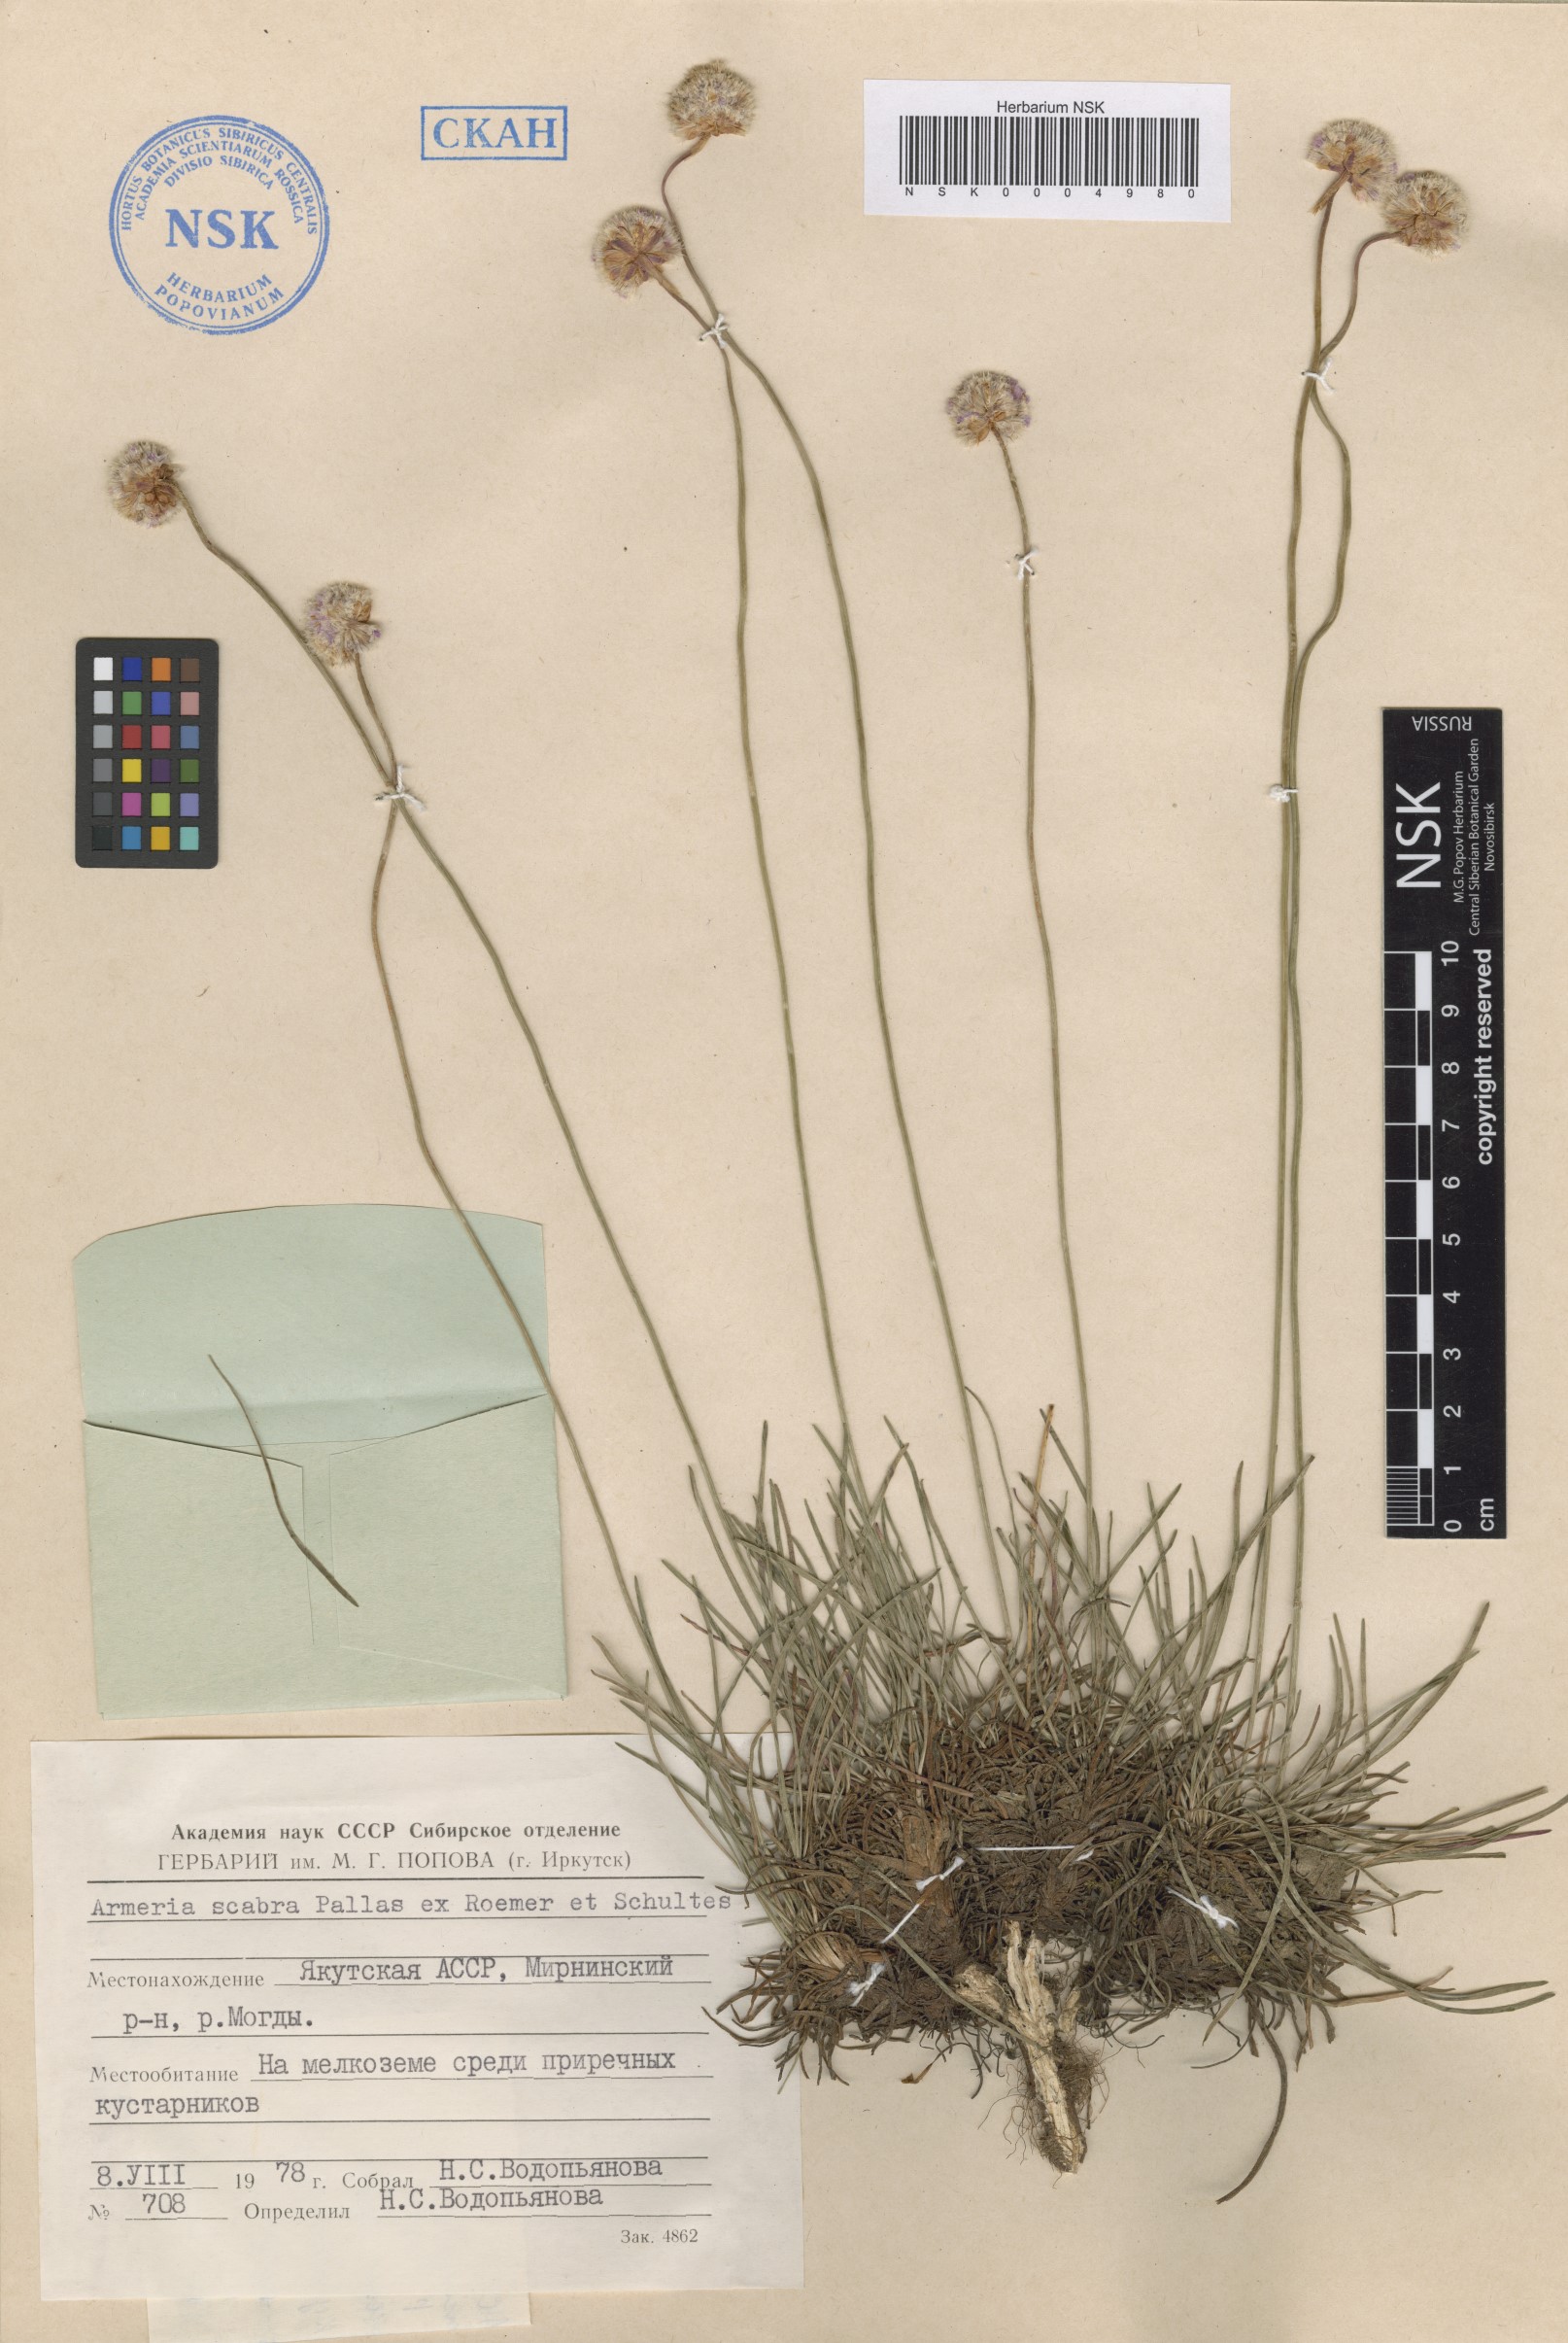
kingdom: Plantae
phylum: Tracheophyta
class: Magnoliopsida
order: Caryophyllales
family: Plumbaginaceae
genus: Armeria
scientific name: Armeria maritima
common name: Thrift
